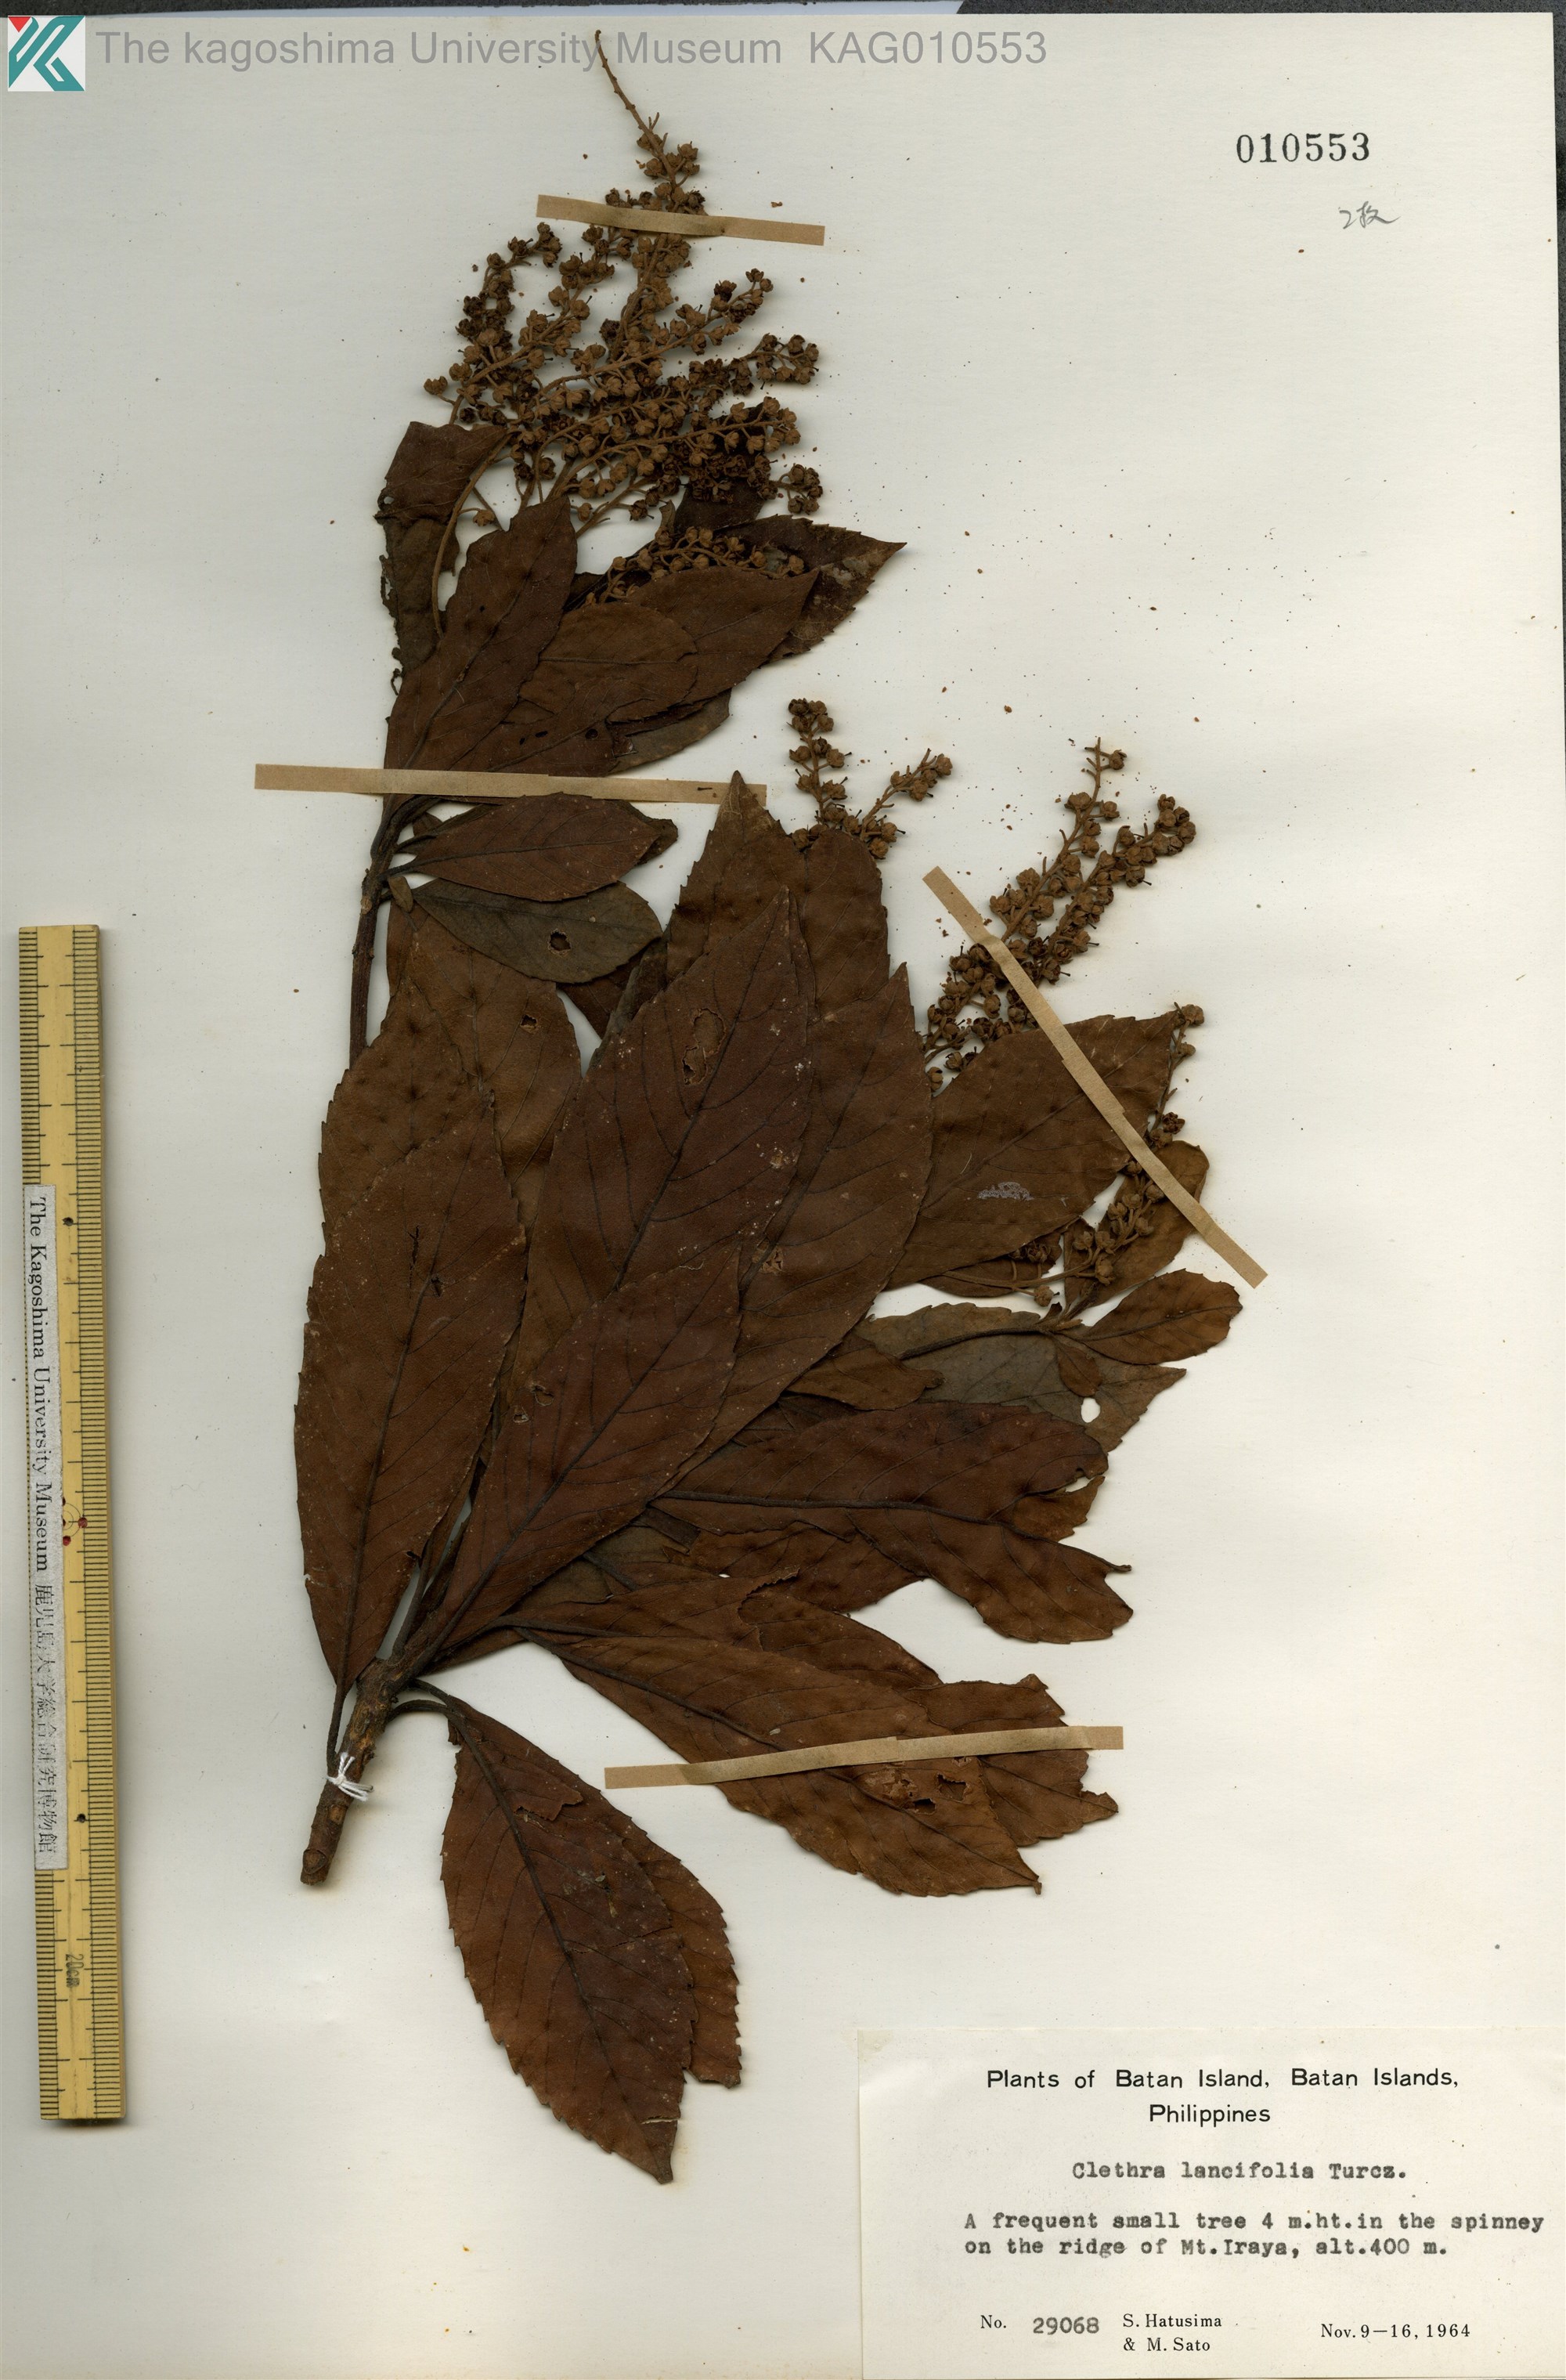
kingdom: Plantae
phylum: Tracheophyta
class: Magnoliopsida
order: Ericales
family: Clethraceae
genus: Clethra
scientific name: Clethra canescens
